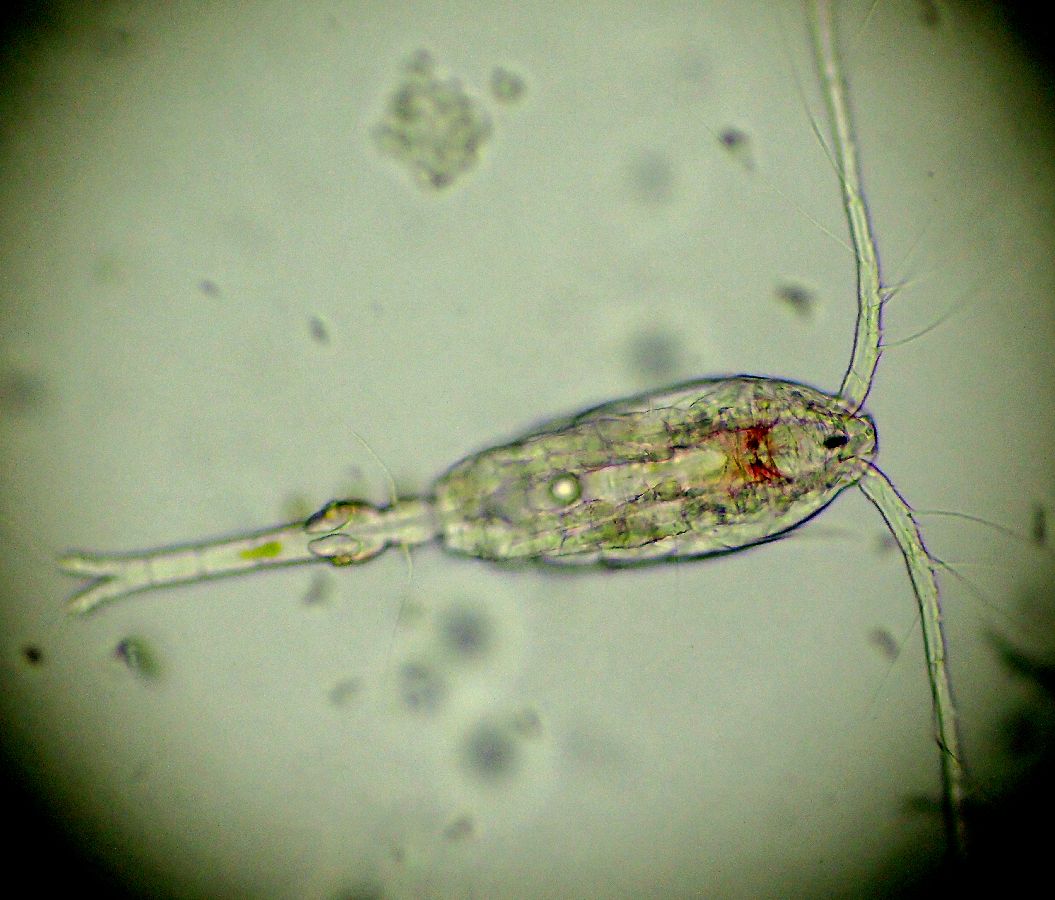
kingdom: Animalia
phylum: Arthropoda
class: Copepoda
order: Cyclopoida
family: Oithonidae
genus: Oithona
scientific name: Oithona similis
